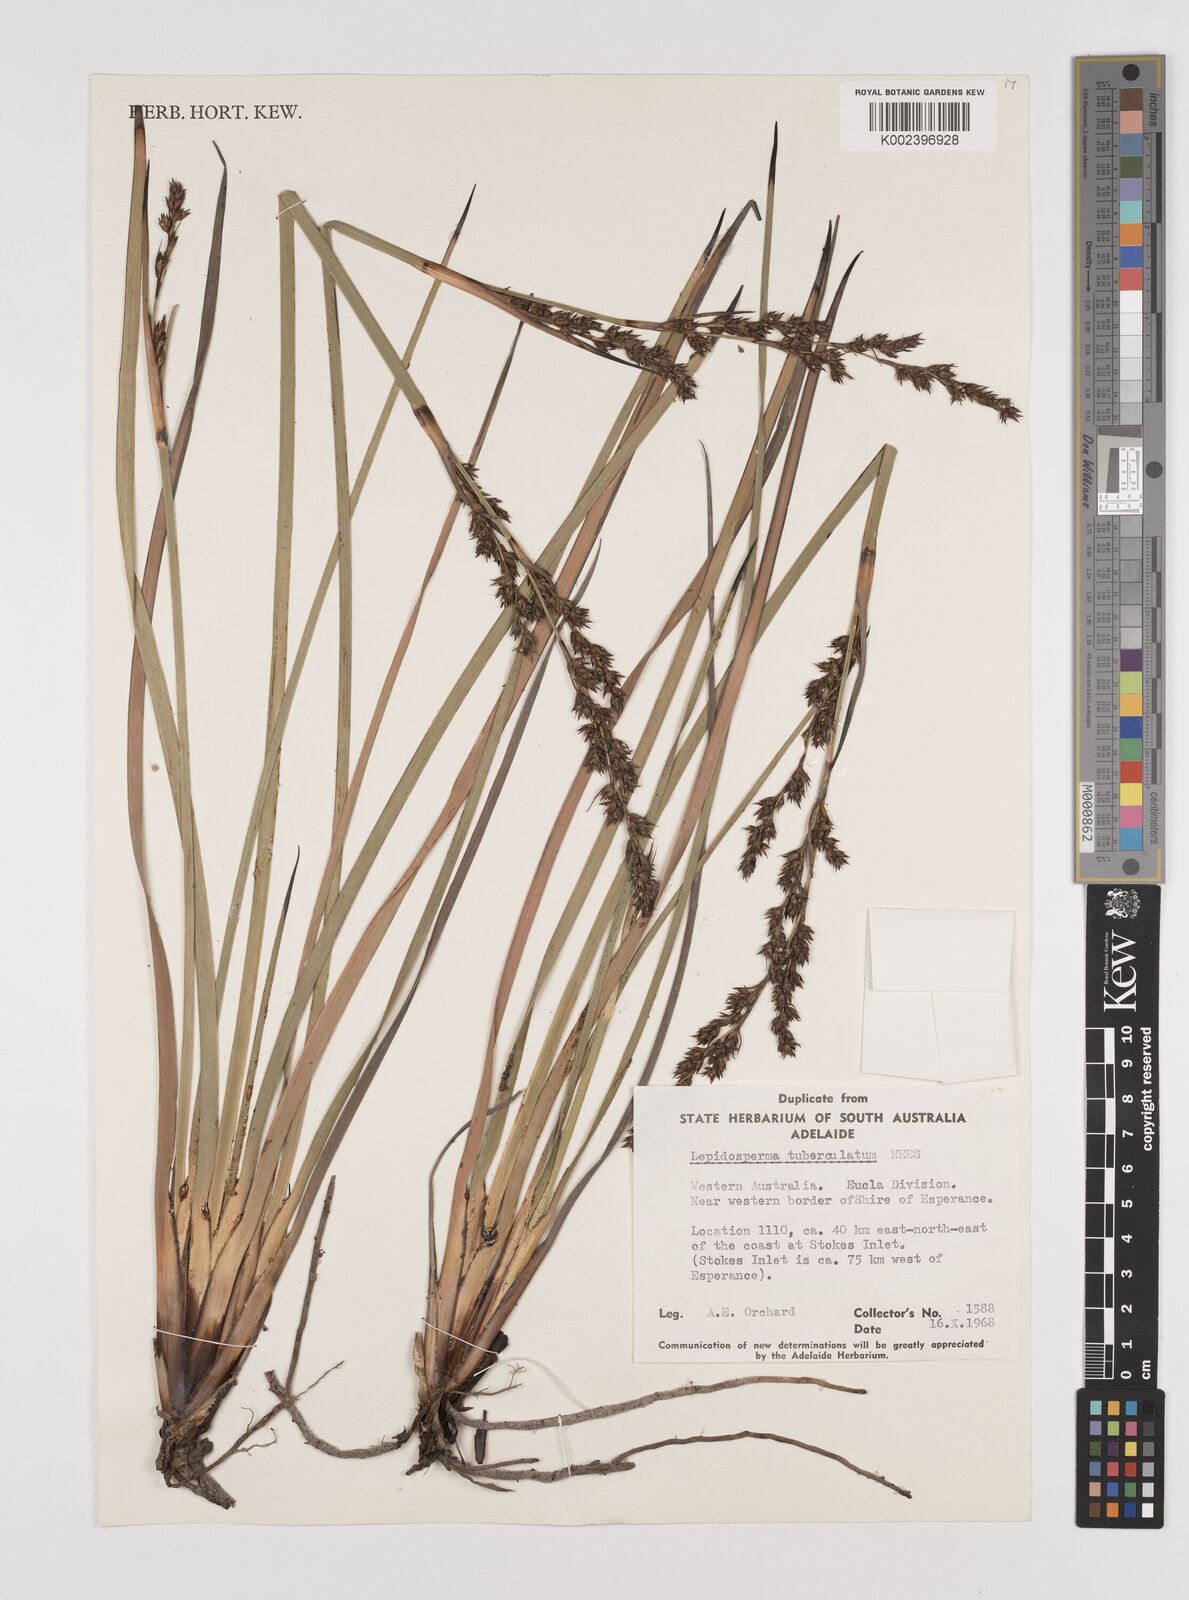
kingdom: Plantae
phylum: Tracheophyta
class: Liliopsida
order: Poales
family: Cyperaceae
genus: Lepidosperma
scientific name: Lepidosperma tuberculatum
